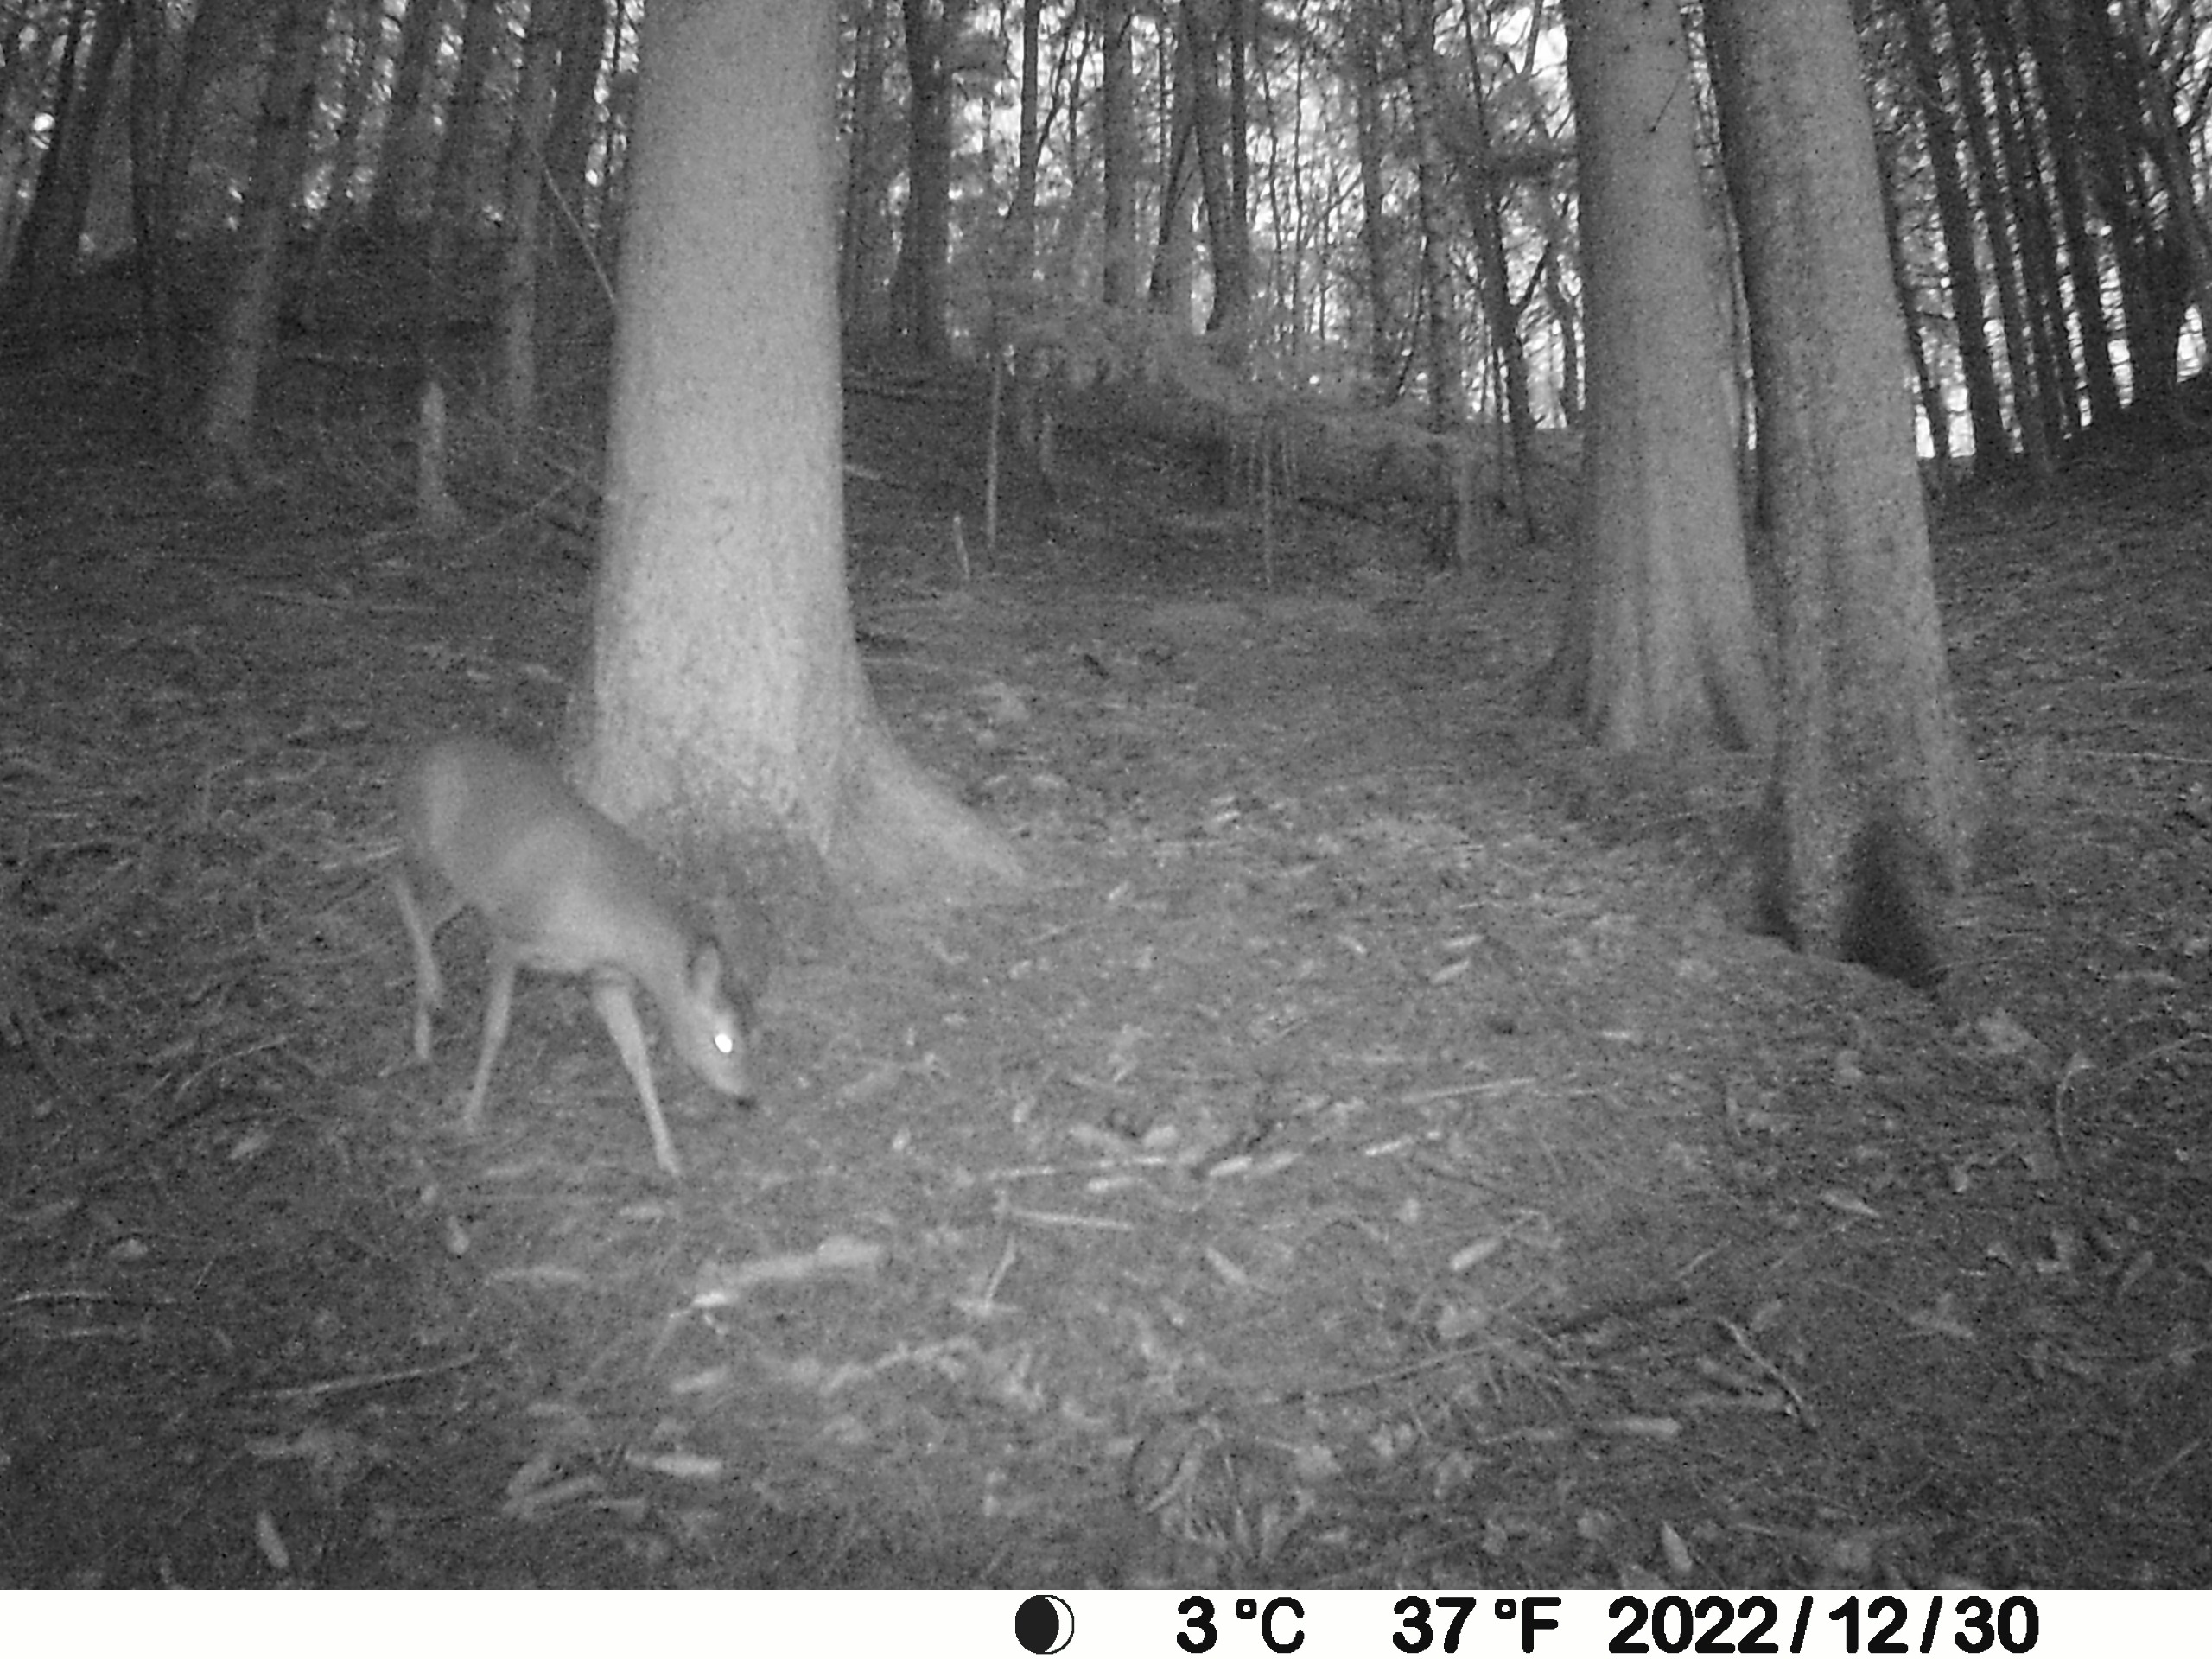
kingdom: Animalia
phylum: Chordata
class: Mammalia
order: Artiodactyla
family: Cervidae
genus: Capreolus
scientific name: Capreolus capreolus
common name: Rådyr
